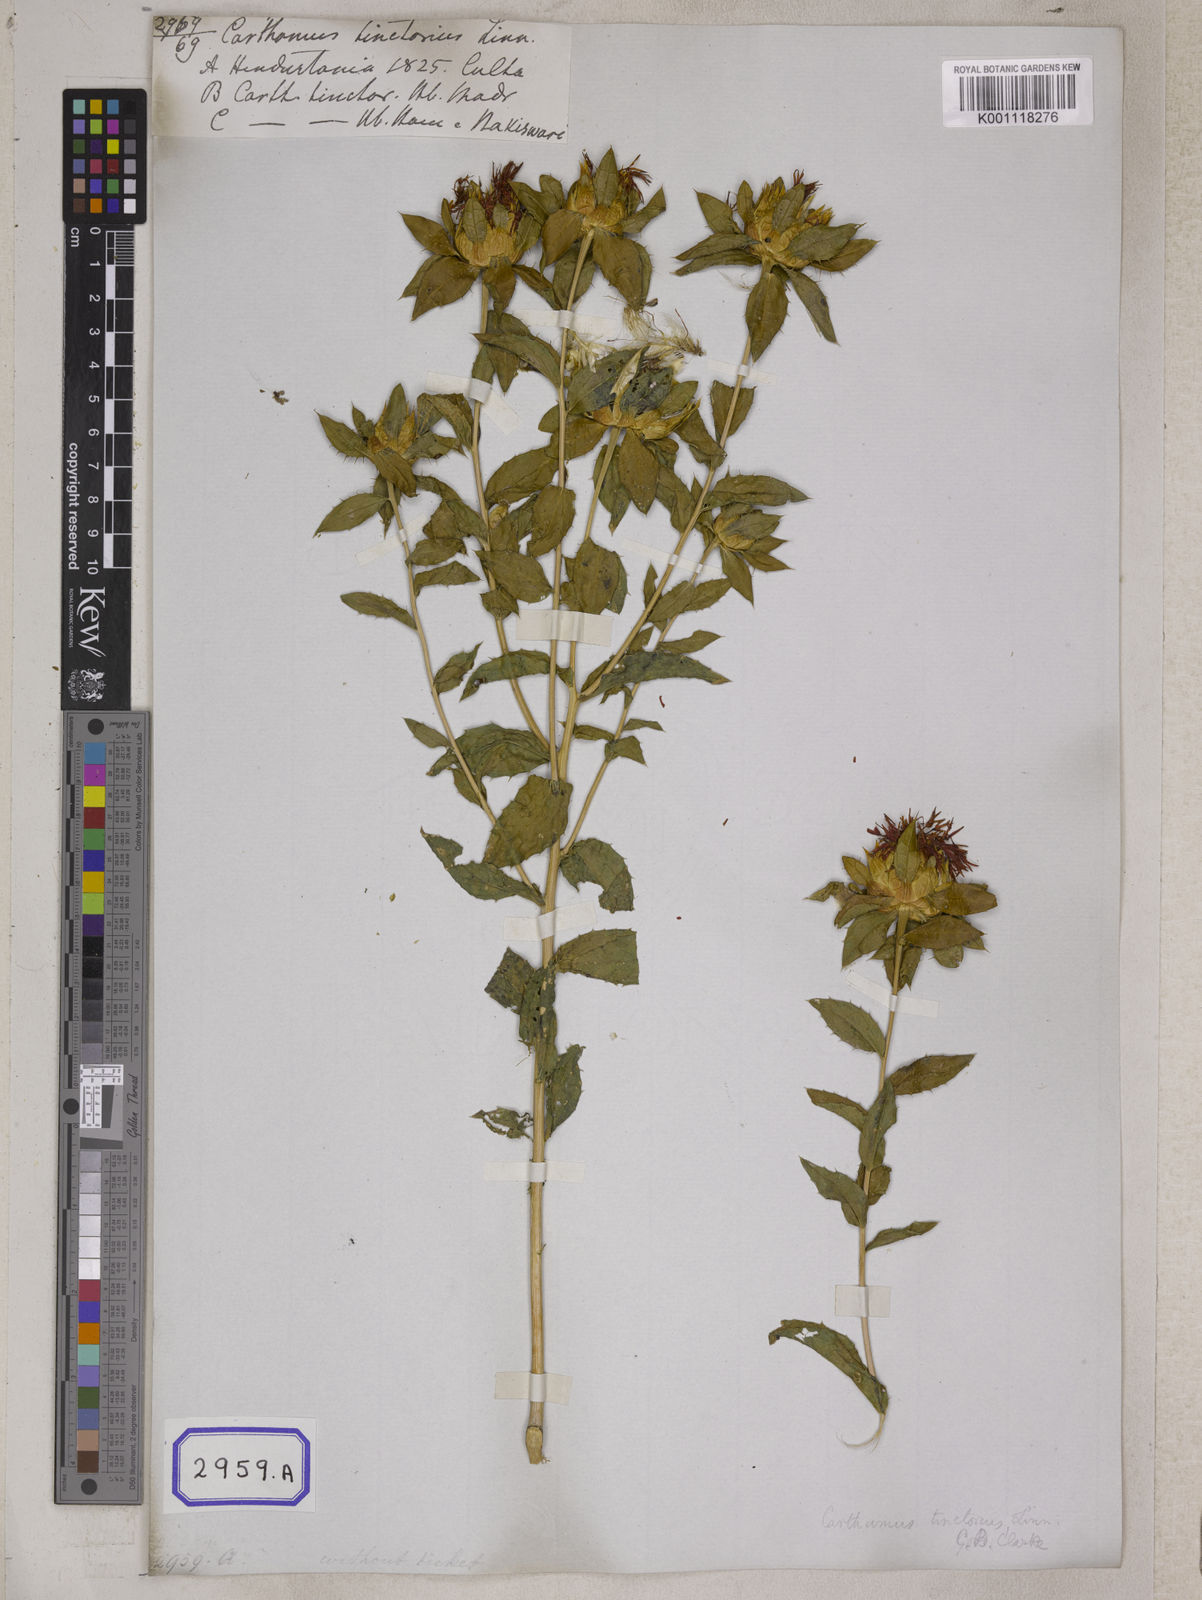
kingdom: Plantae
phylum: Tracheophyta
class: Magnoliopsida
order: Asterales
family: Asteraceae
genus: Carthamus
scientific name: Carthamus tinctorius
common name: Safflower
